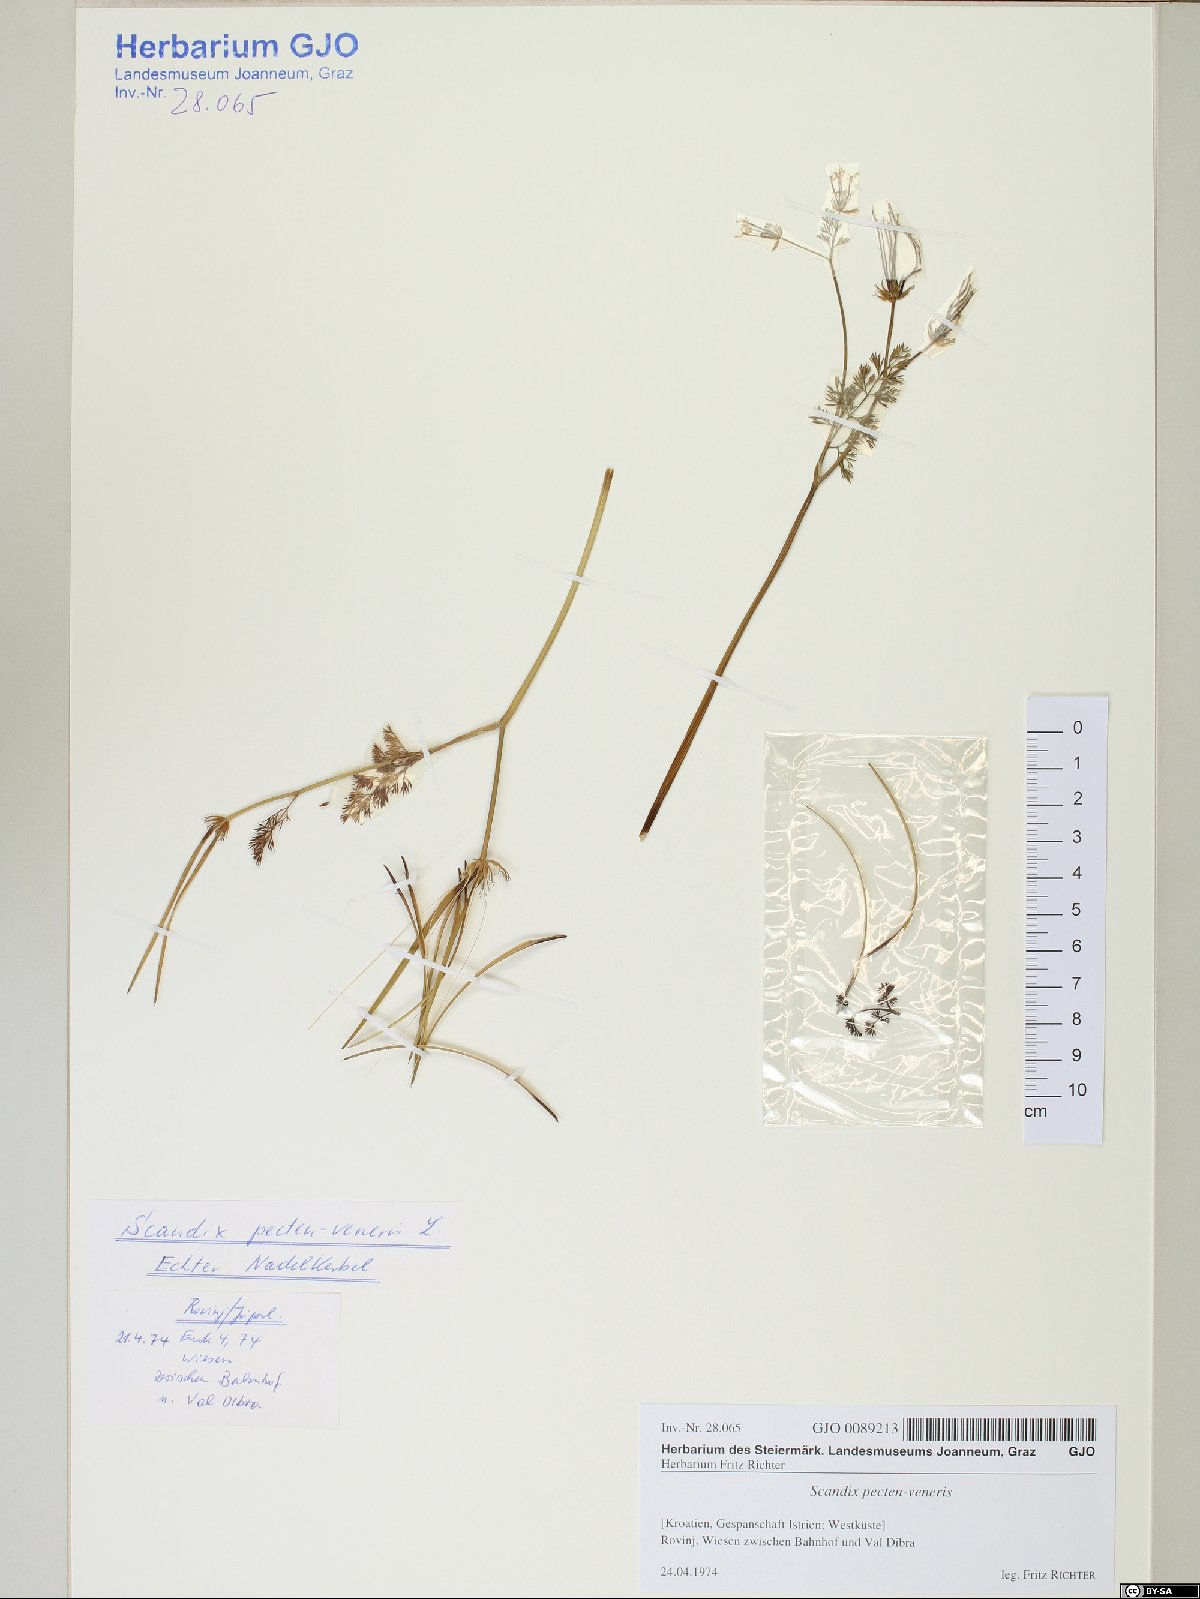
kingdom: Plantae
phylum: Tracheophyta
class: Magnoliopsida
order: Apiales
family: Apiaceae
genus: Scandix
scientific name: Scandix pecten-veneris
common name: Shepherd's-needle
